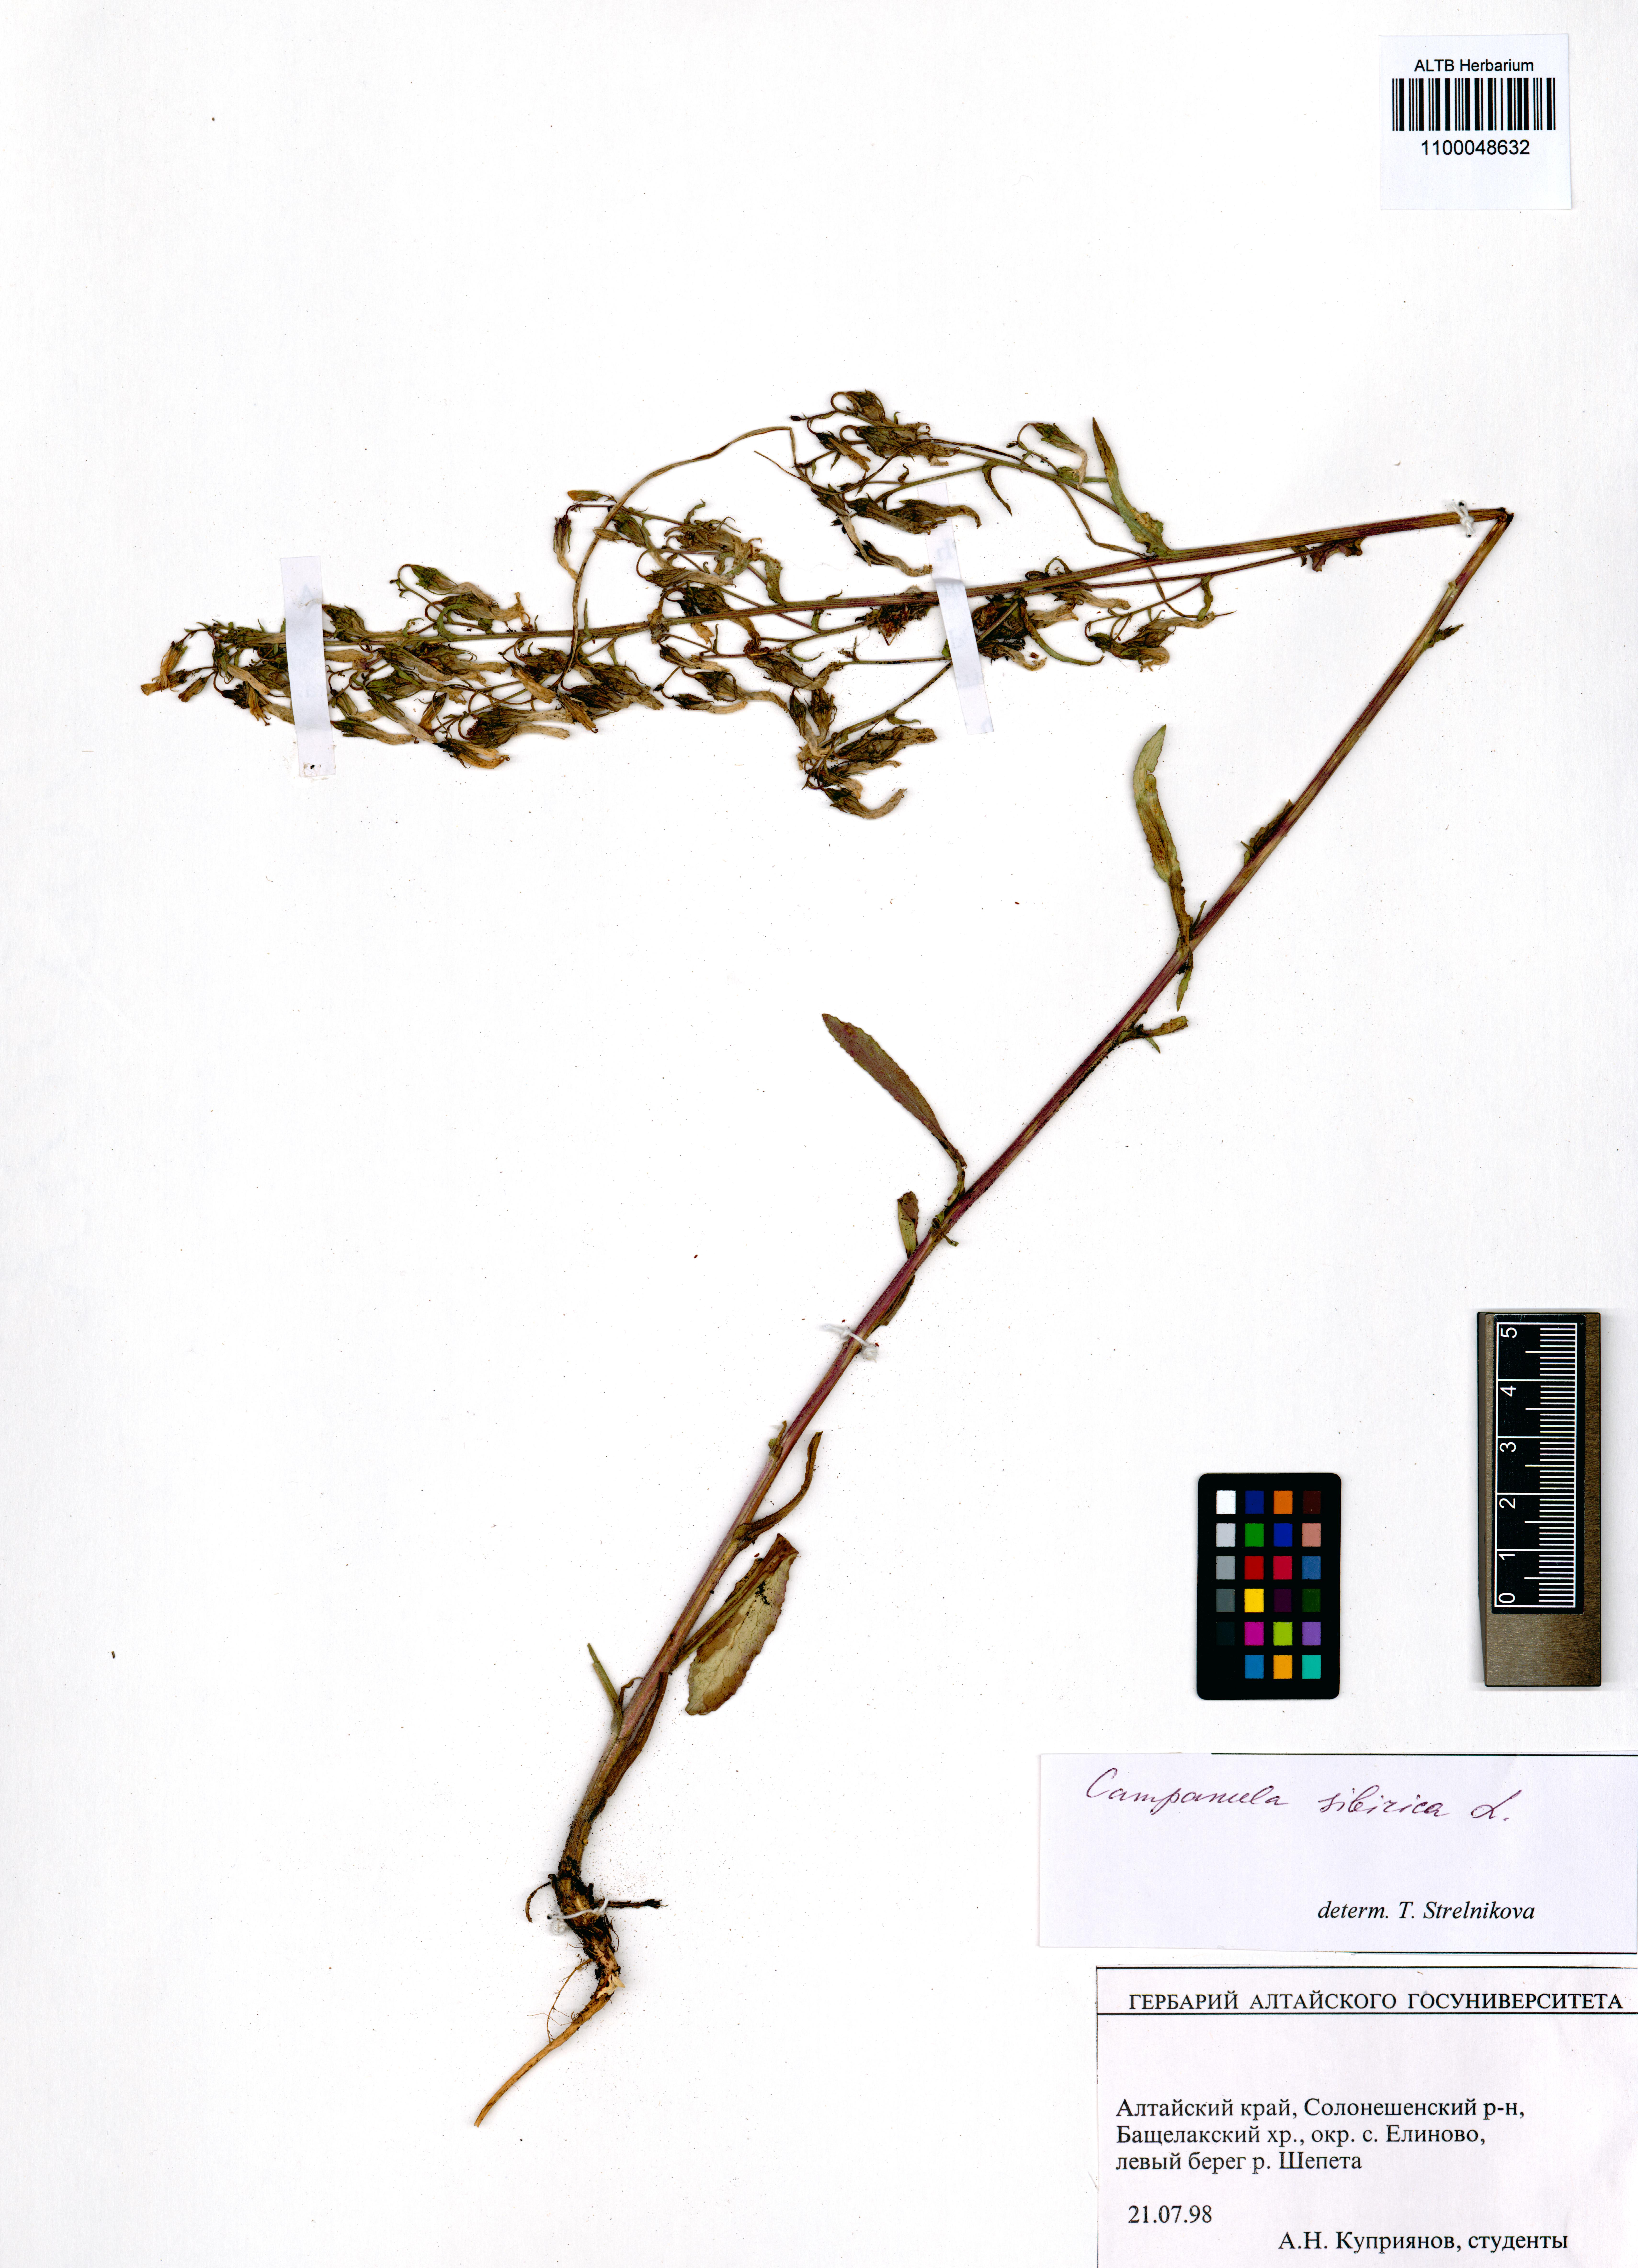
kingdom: Plantae
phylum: Tracheophyta
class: Magnoliopsida
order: Asterales
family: Campanulaceae
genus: Campanula
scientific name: Campanula sibirica
